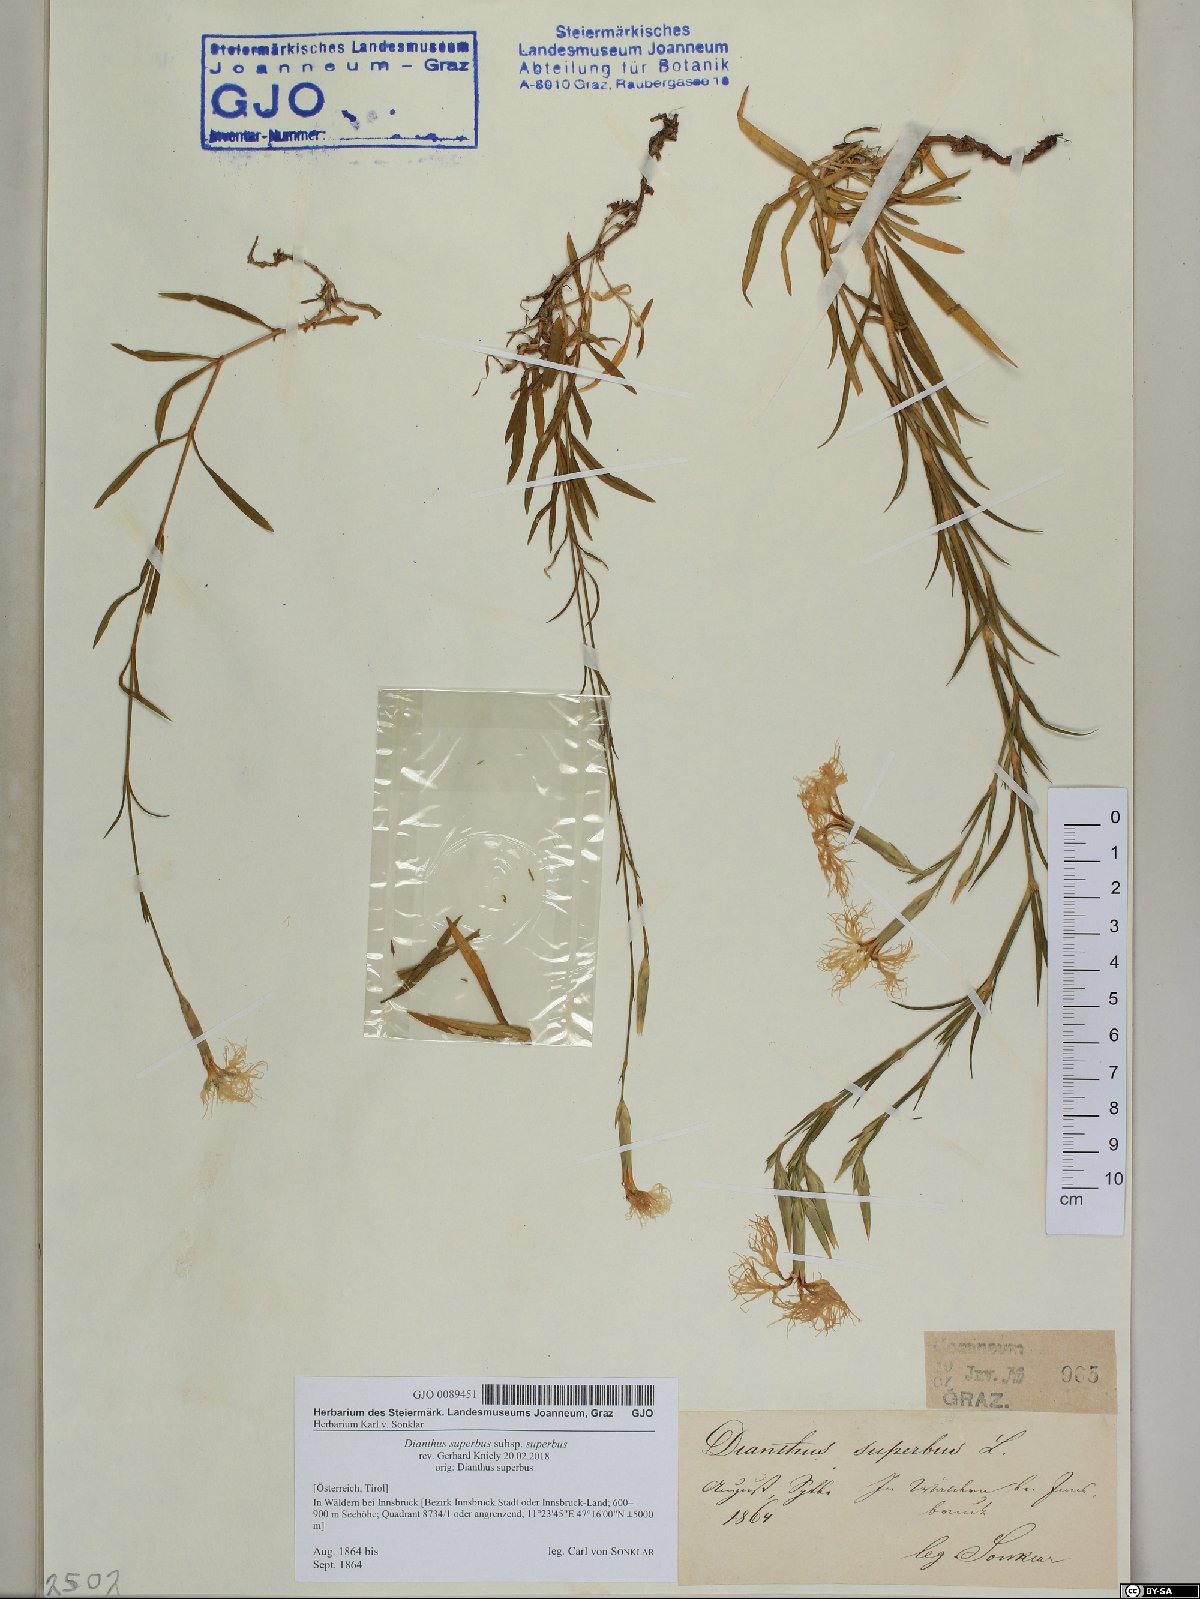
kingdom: Plantae
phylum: Tracheophyta
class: Magnoliopsida
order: Caryophyllales
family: Caryophyllaceae
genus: Dianthus
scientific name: Dianthus superbus
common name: Fringed pink
